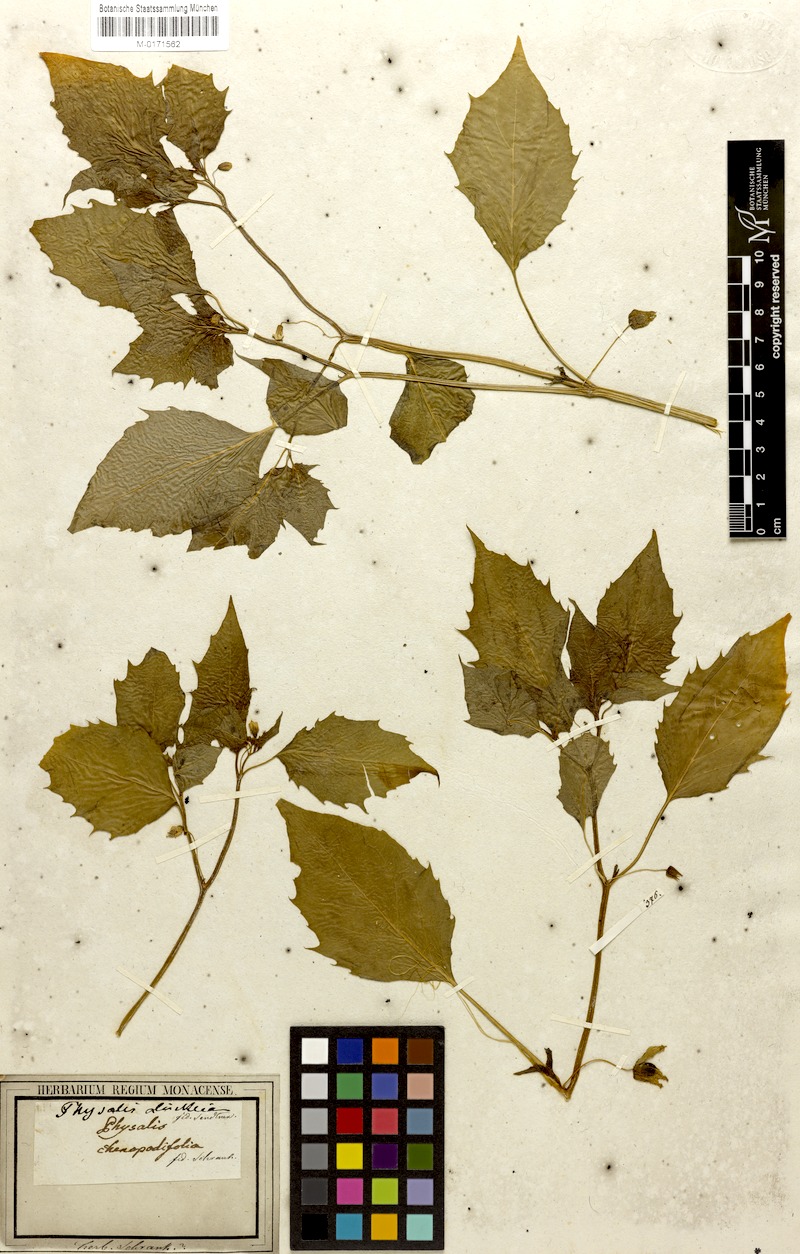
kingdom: Plantae
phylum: Tracheophyta
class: Magnoliopsida
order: Solanales
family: Solanaceae
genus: Physalis
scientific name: Physalis angulata
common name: Angular winter-cherry
